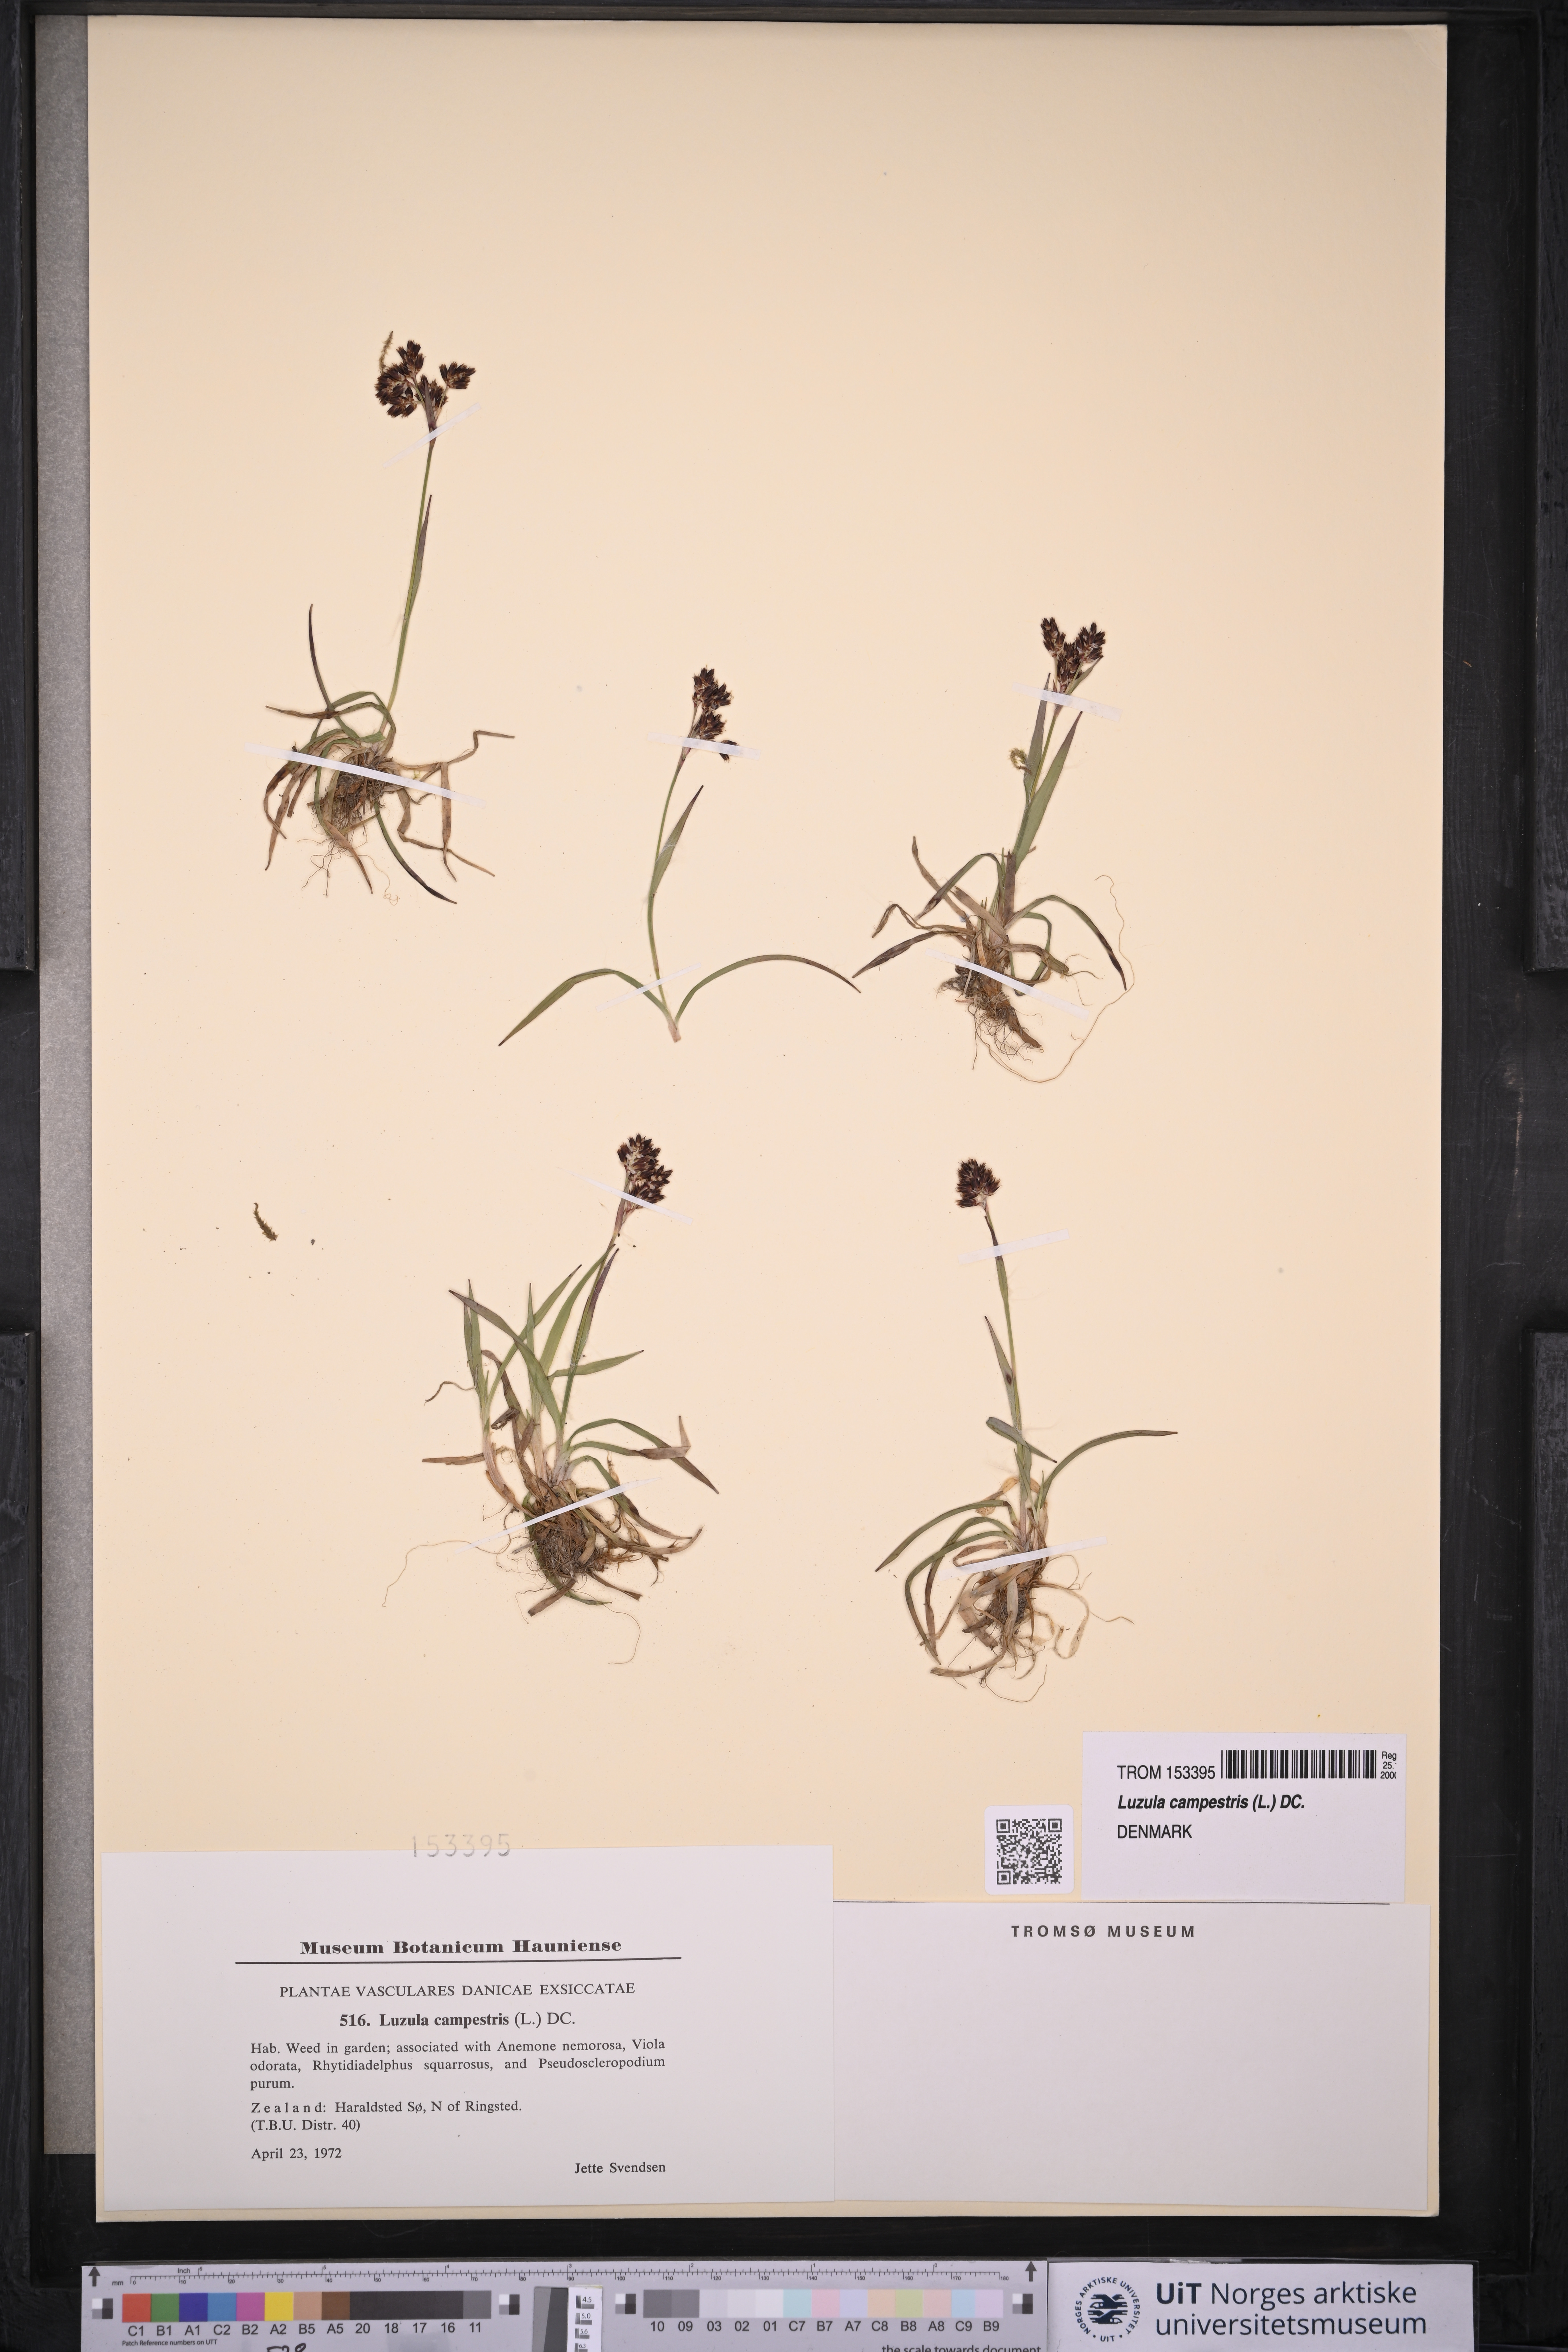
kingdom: Plantae
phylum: Tracheophyta
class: Liliopsida
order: Poales
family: Juncaceae
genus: Luzula
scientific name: Luzula campestris
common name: Field wood-rush
